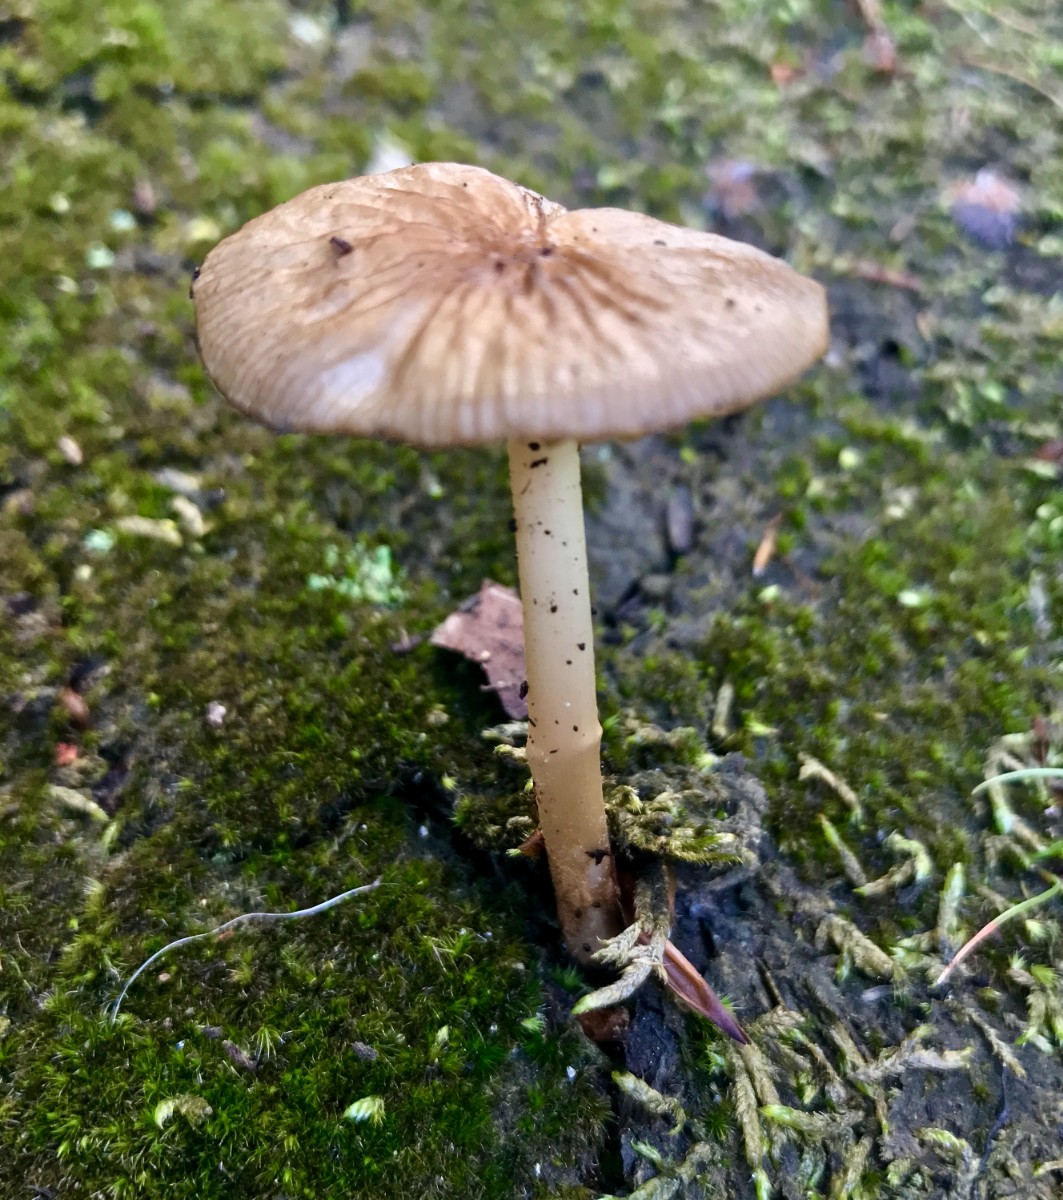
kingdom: Fungi
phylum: Basidiomycota
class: Agaricomycetes
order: Agaricales
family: Physalacriaceae
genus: Hymenopellis
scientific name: Hymenopellis radicata
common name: almindelig pælerodshat
